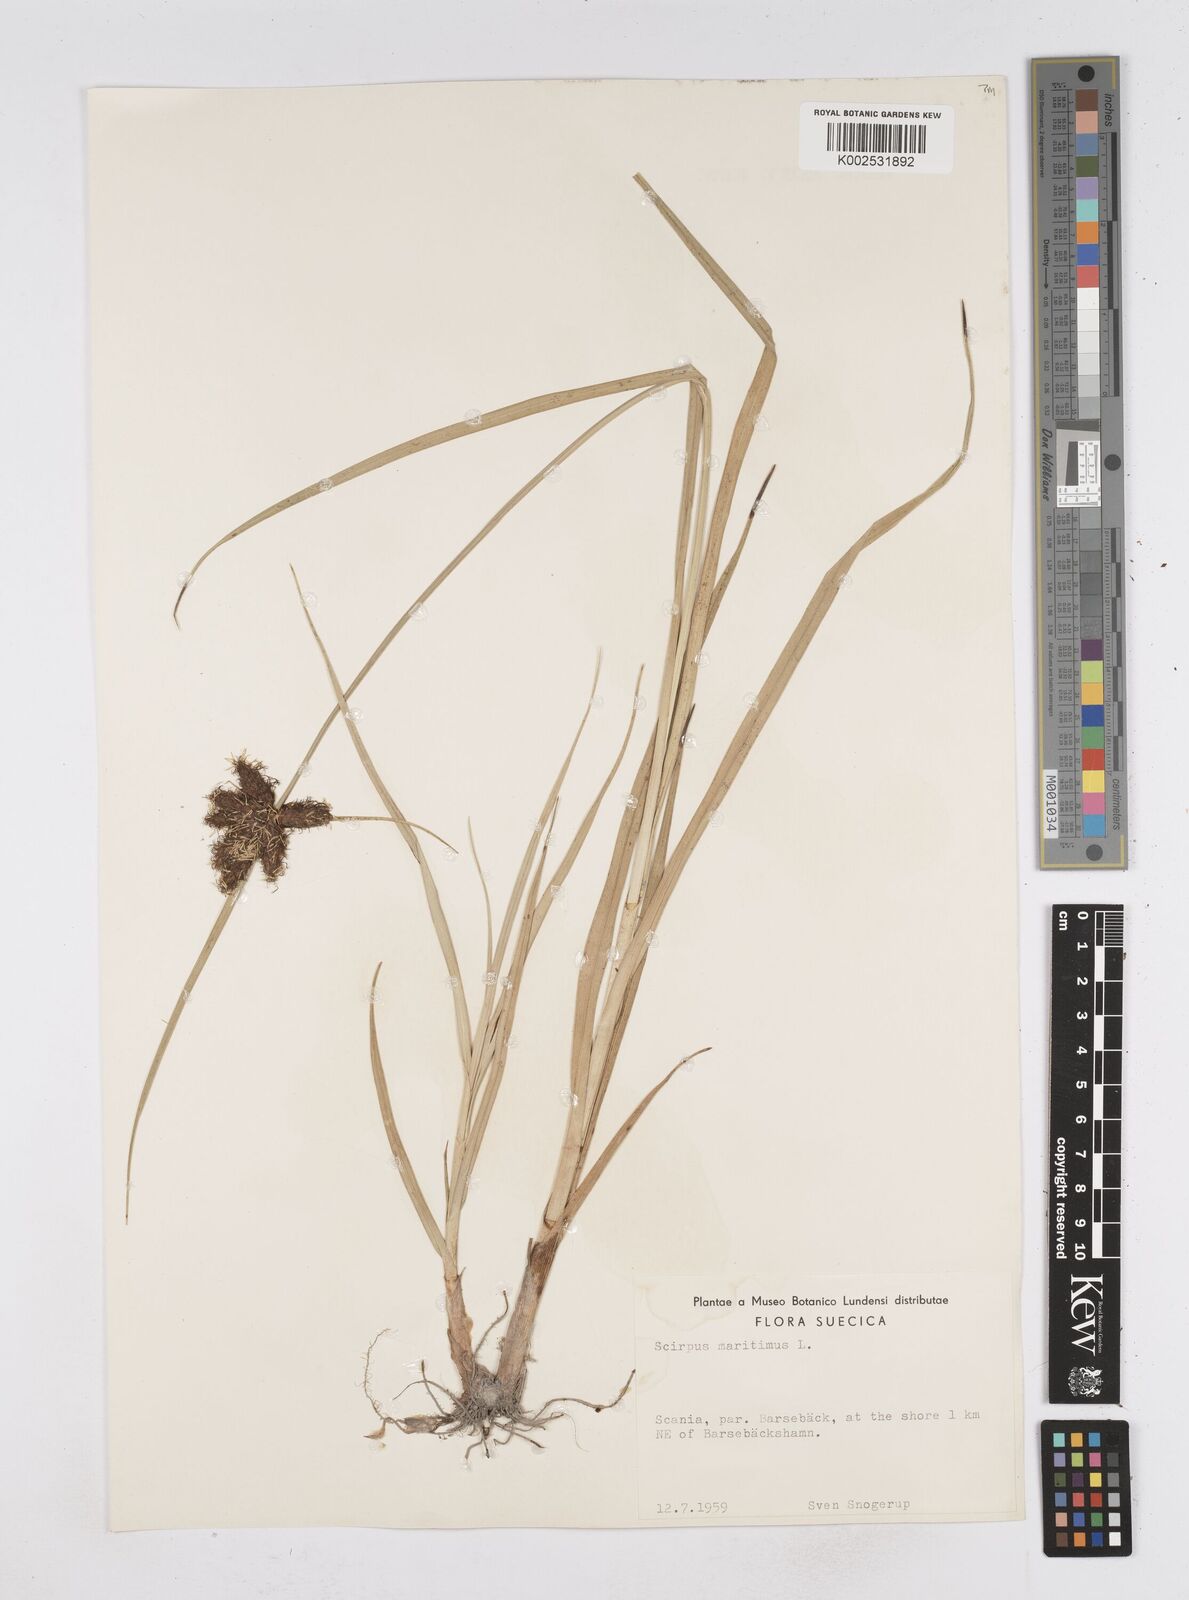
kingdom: Plantae
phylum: Tracheophyta
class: Liliopsida
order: Poales
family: Cyperaceae
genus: Bolboschoenus
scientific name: Bolboschoenus maritimus
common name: Sea club-rush
